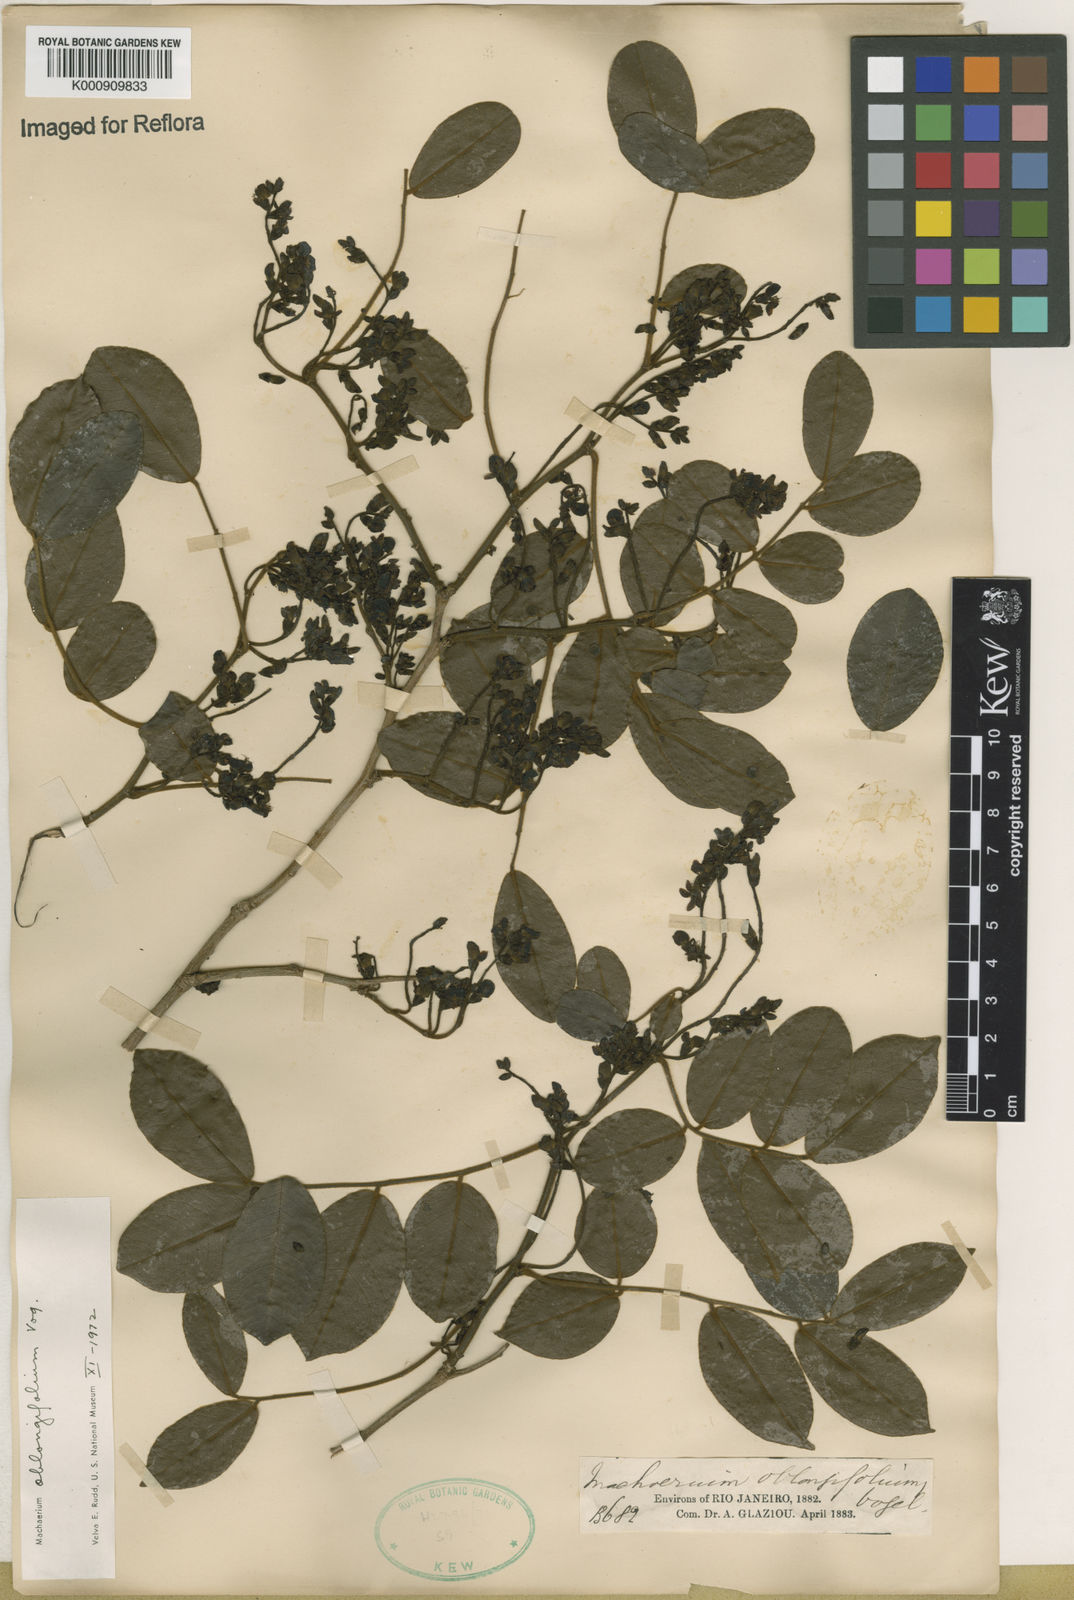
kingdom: Plantae
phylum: Tracheophyta
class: Magnoliopsida
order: Fabales
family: Fabaceae
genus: Machaerium
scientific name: Machaerium oblongifolium
